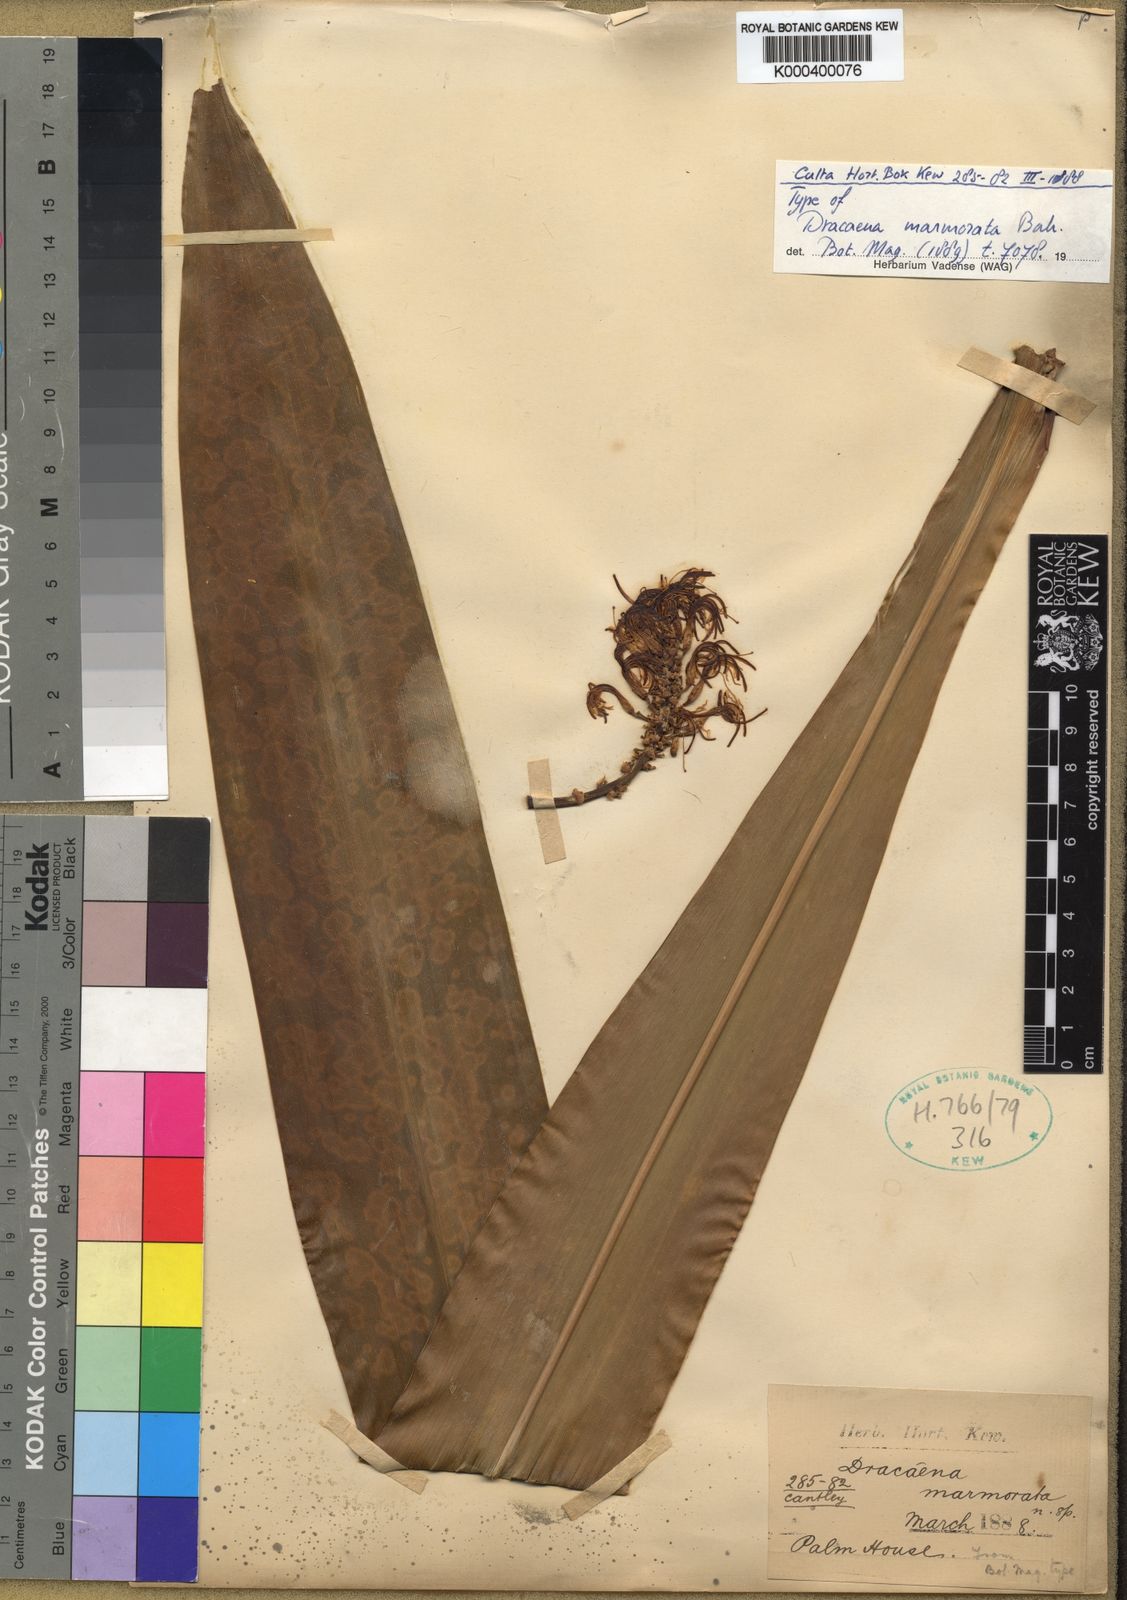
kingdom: Plantae
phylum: Tracheophyta
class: Liliopsida
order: Asparagales
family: Asparagaceae
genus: Dracaena
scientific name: Dracaena cantleyi
